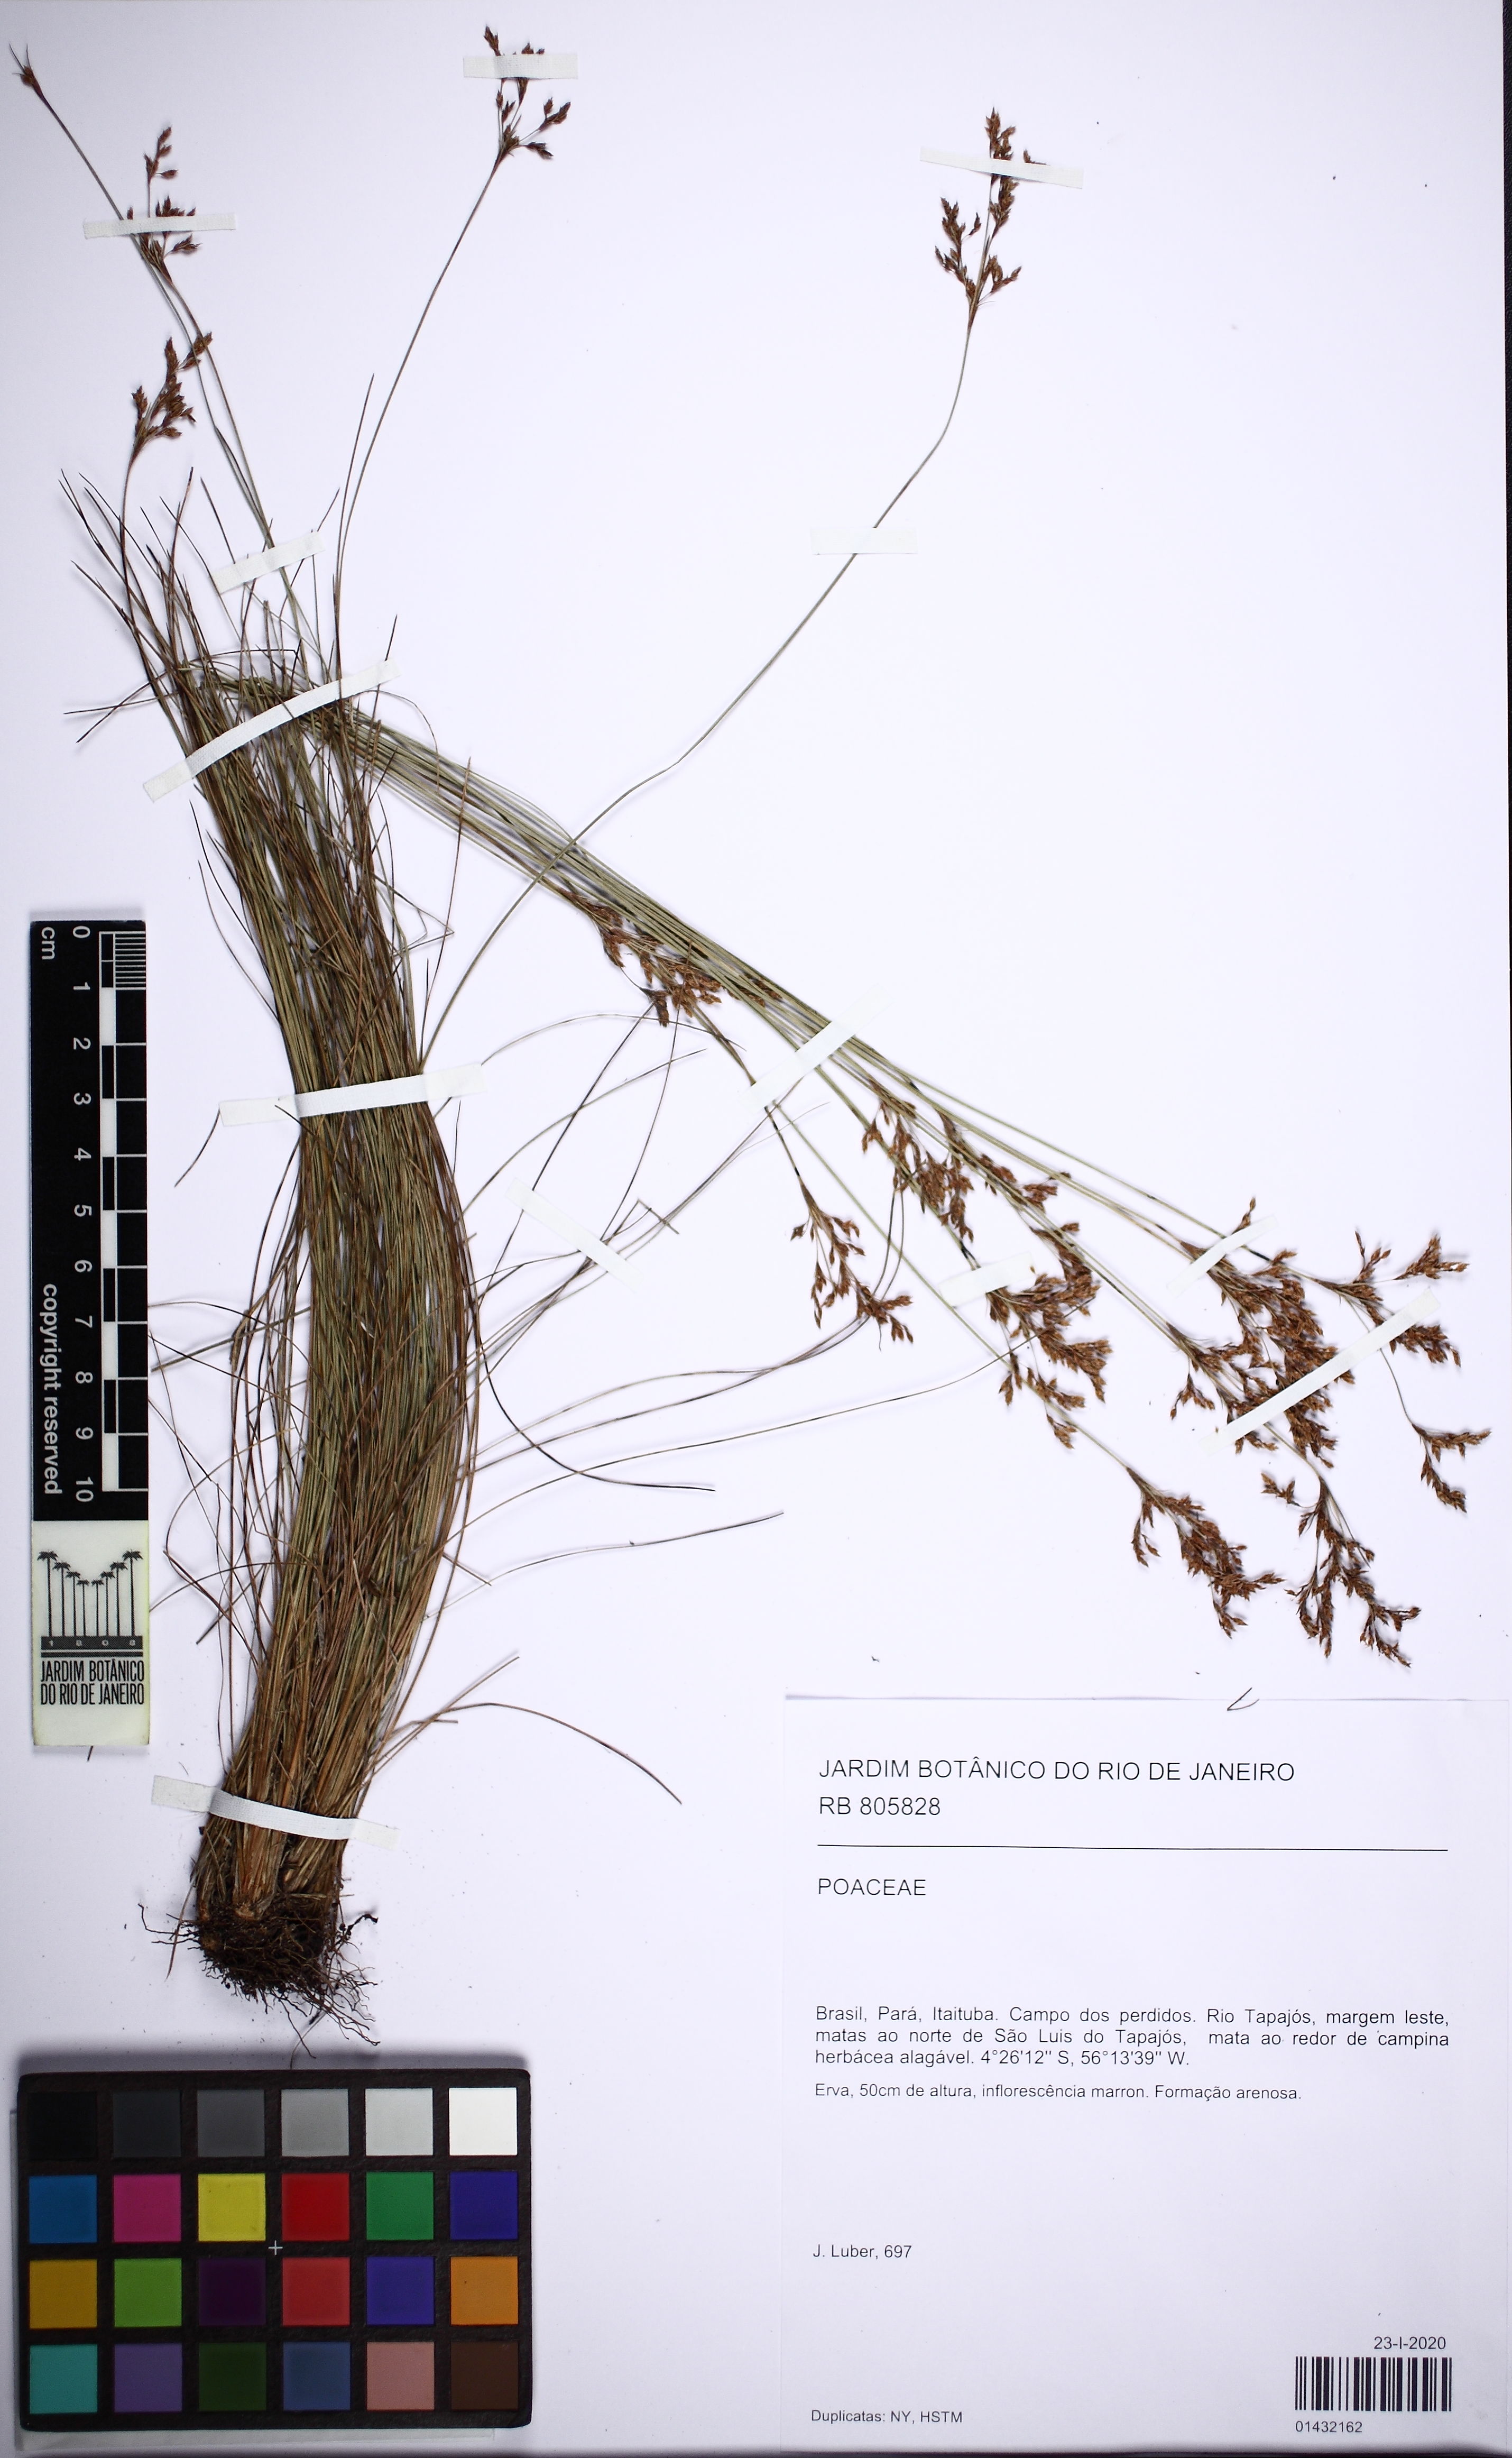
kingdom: Plantae
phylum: Tracheophyta
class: Liliopsida
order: Poales
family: Poaceae
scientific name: Poaceae
